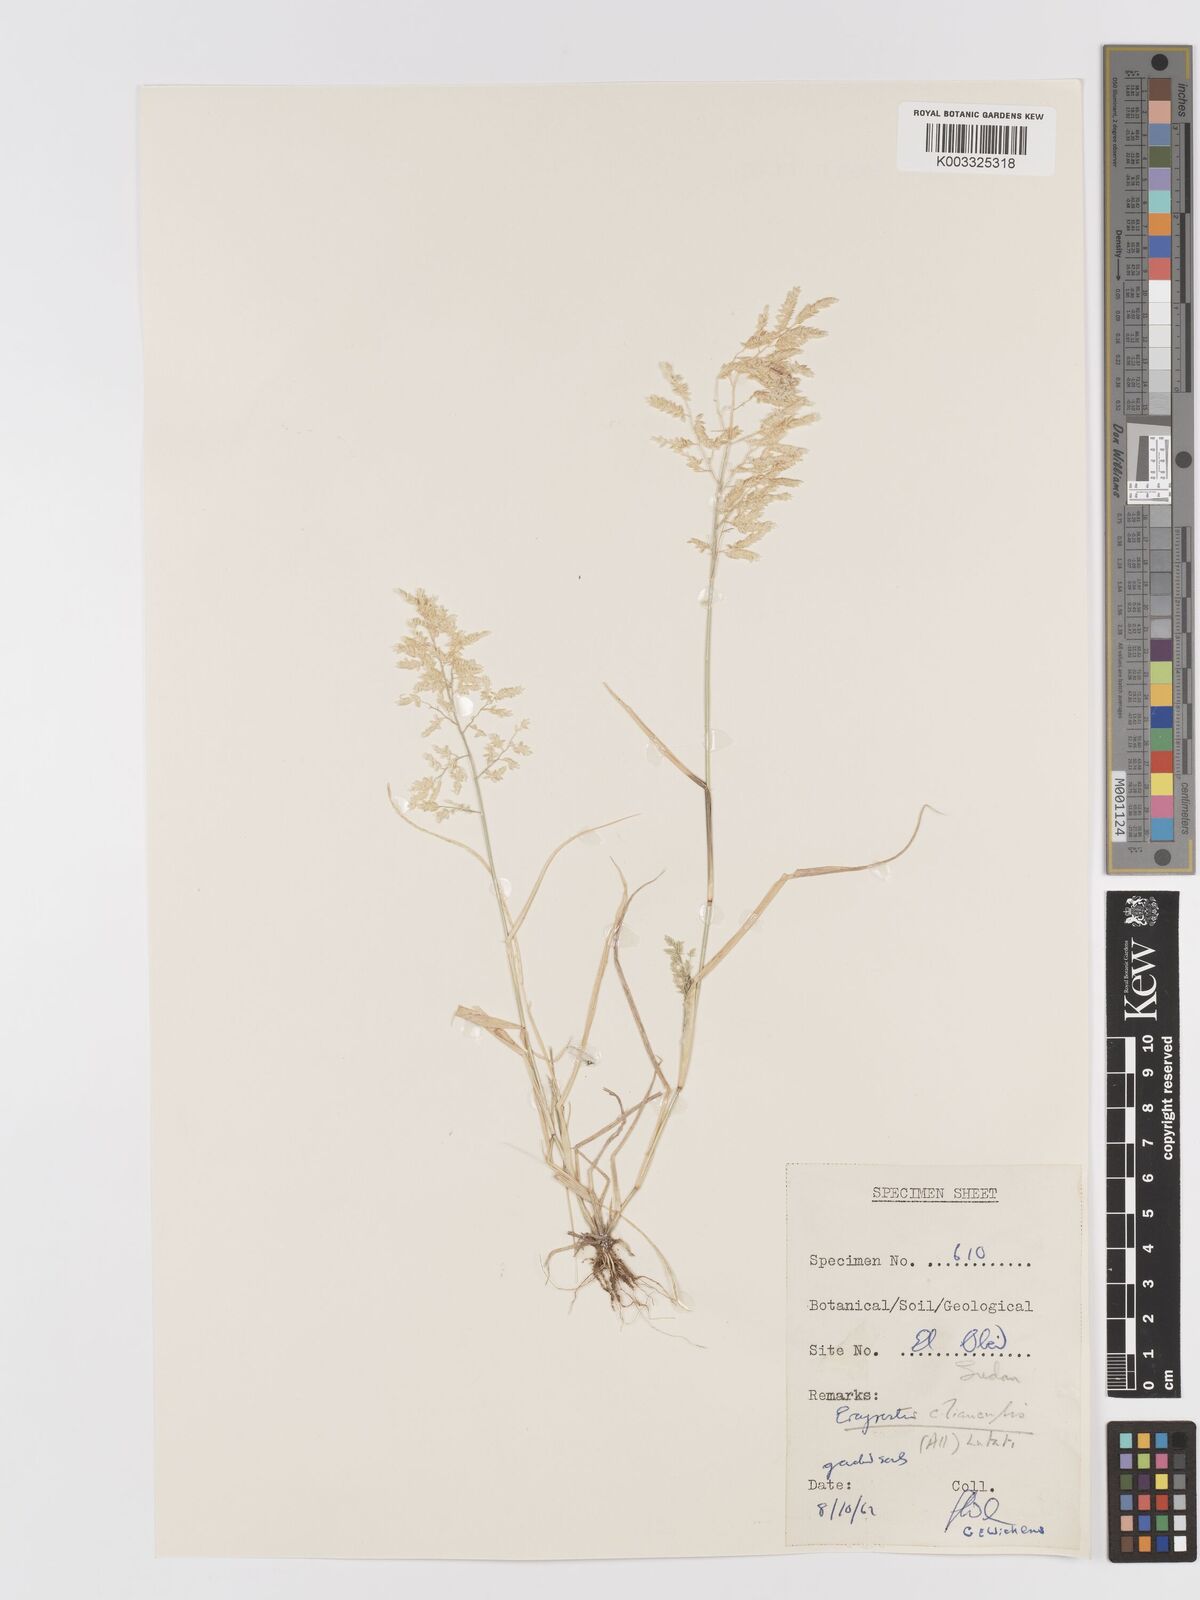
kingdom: Plantae
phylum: Tracheophyta
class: Liliopsida
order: Poales
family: Poaceae
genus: Eragrostis
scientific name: Eragrostis cilianensis
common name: Stinkgrass
